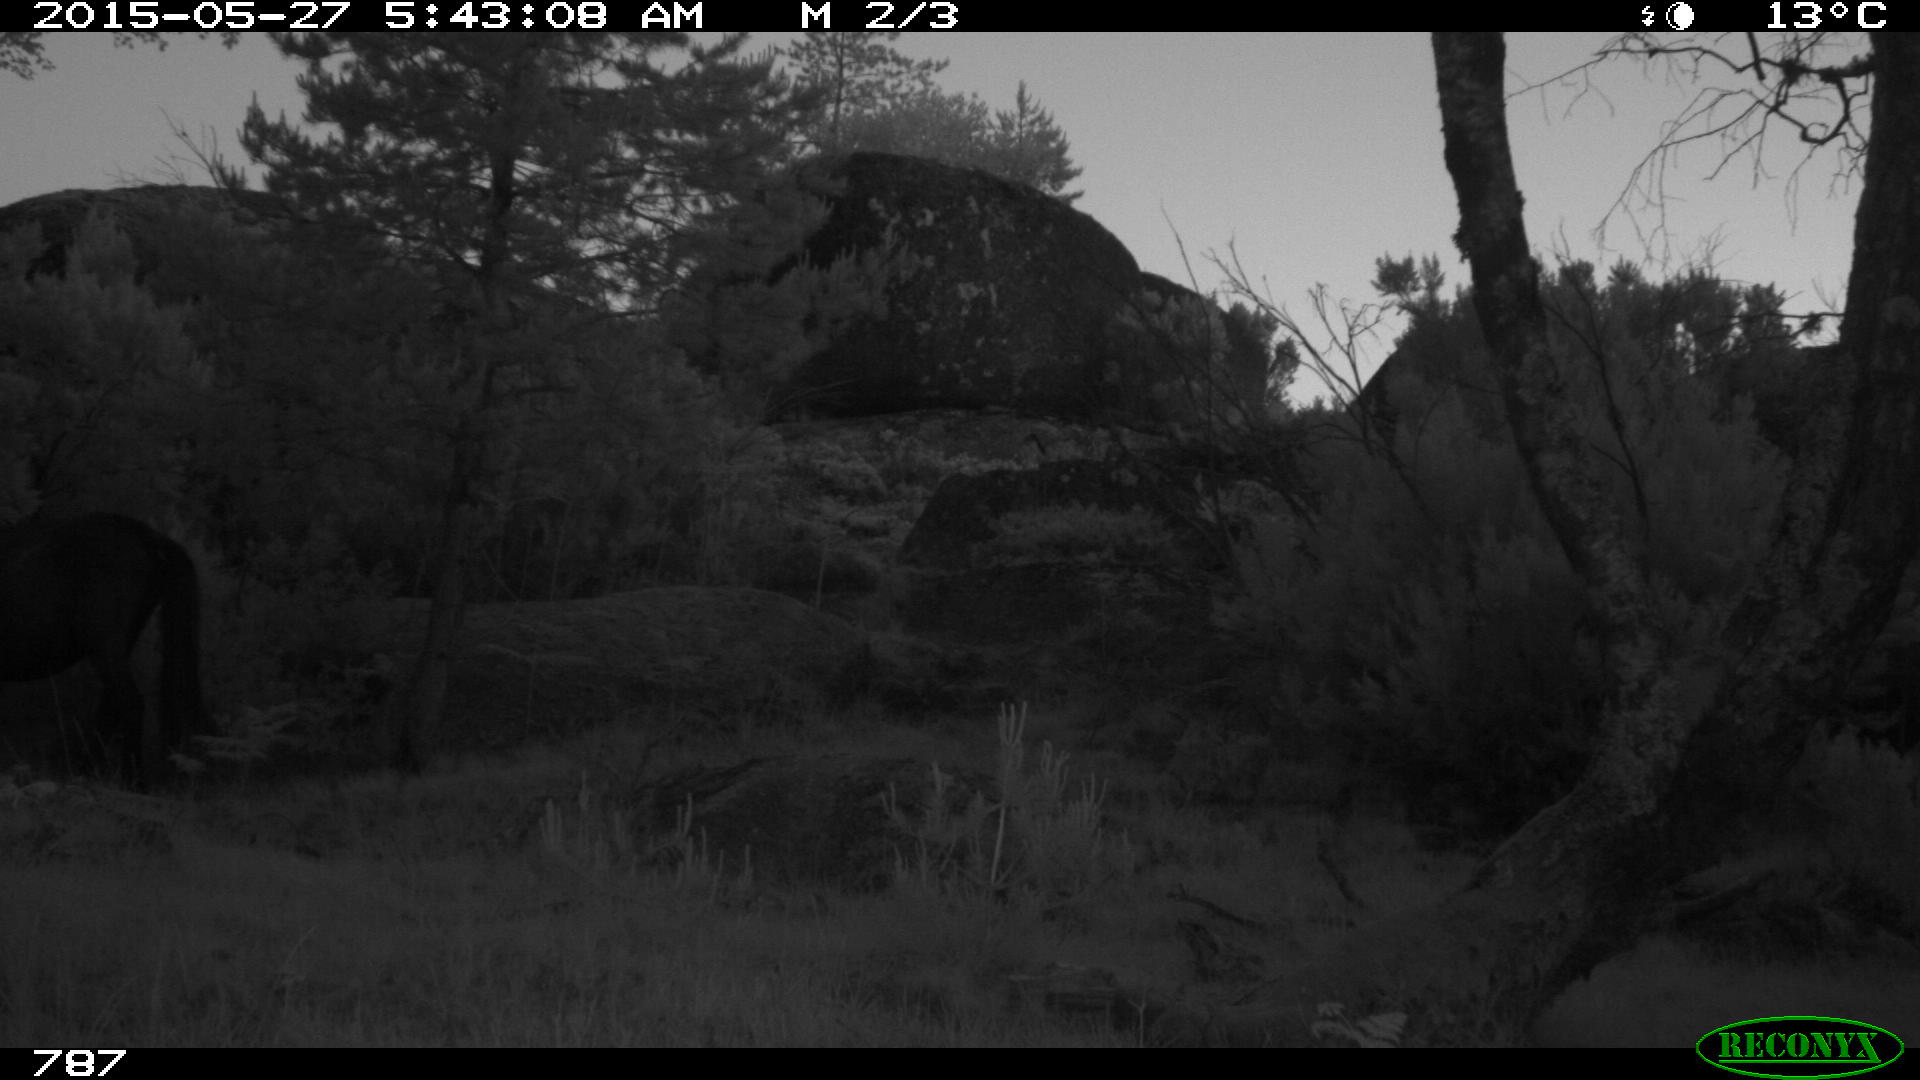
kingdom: Animalia
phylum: Chordata
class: Mammalia
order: Perissodactyla
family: Equidae
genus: Equus
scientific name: Equus caballus
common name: Horse
